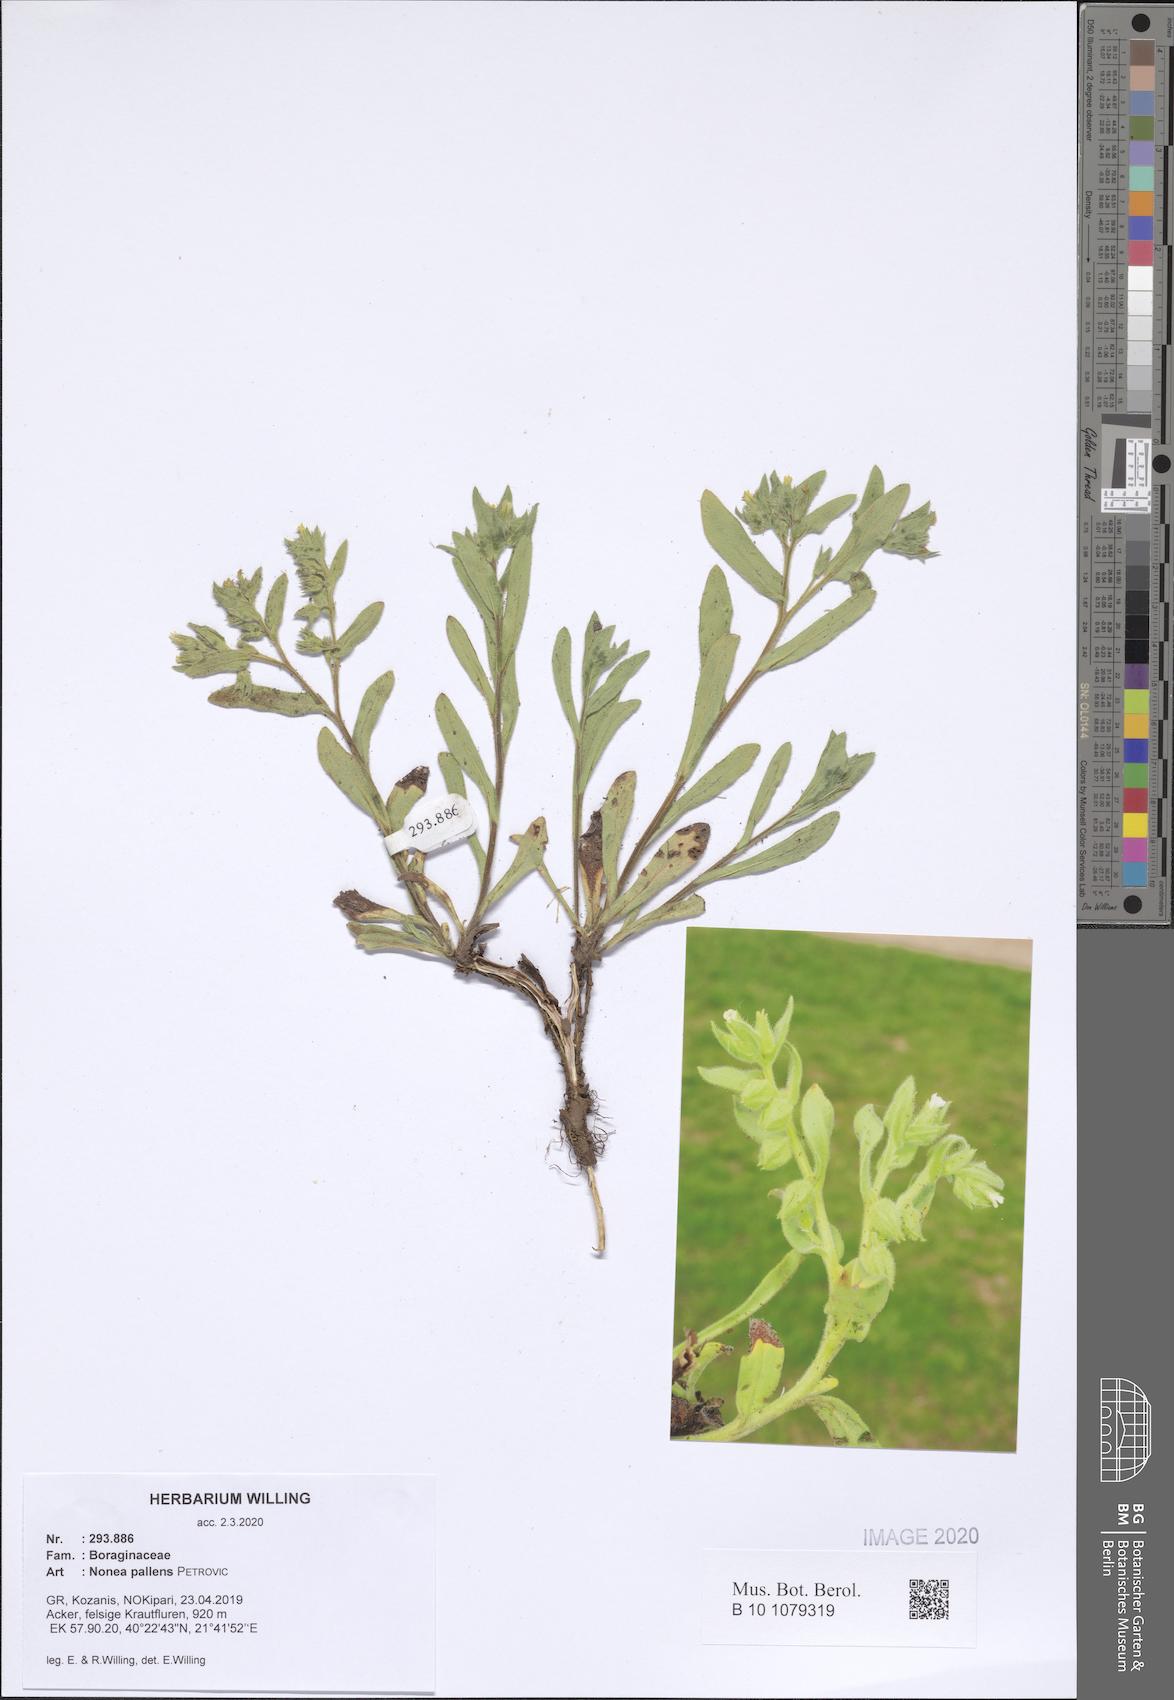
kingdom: Plantae
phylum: Tracheophyta
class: Magnoliopsida
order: Boraginales
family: Boraginaceae
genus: Nonea
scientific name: Nonea pallens
